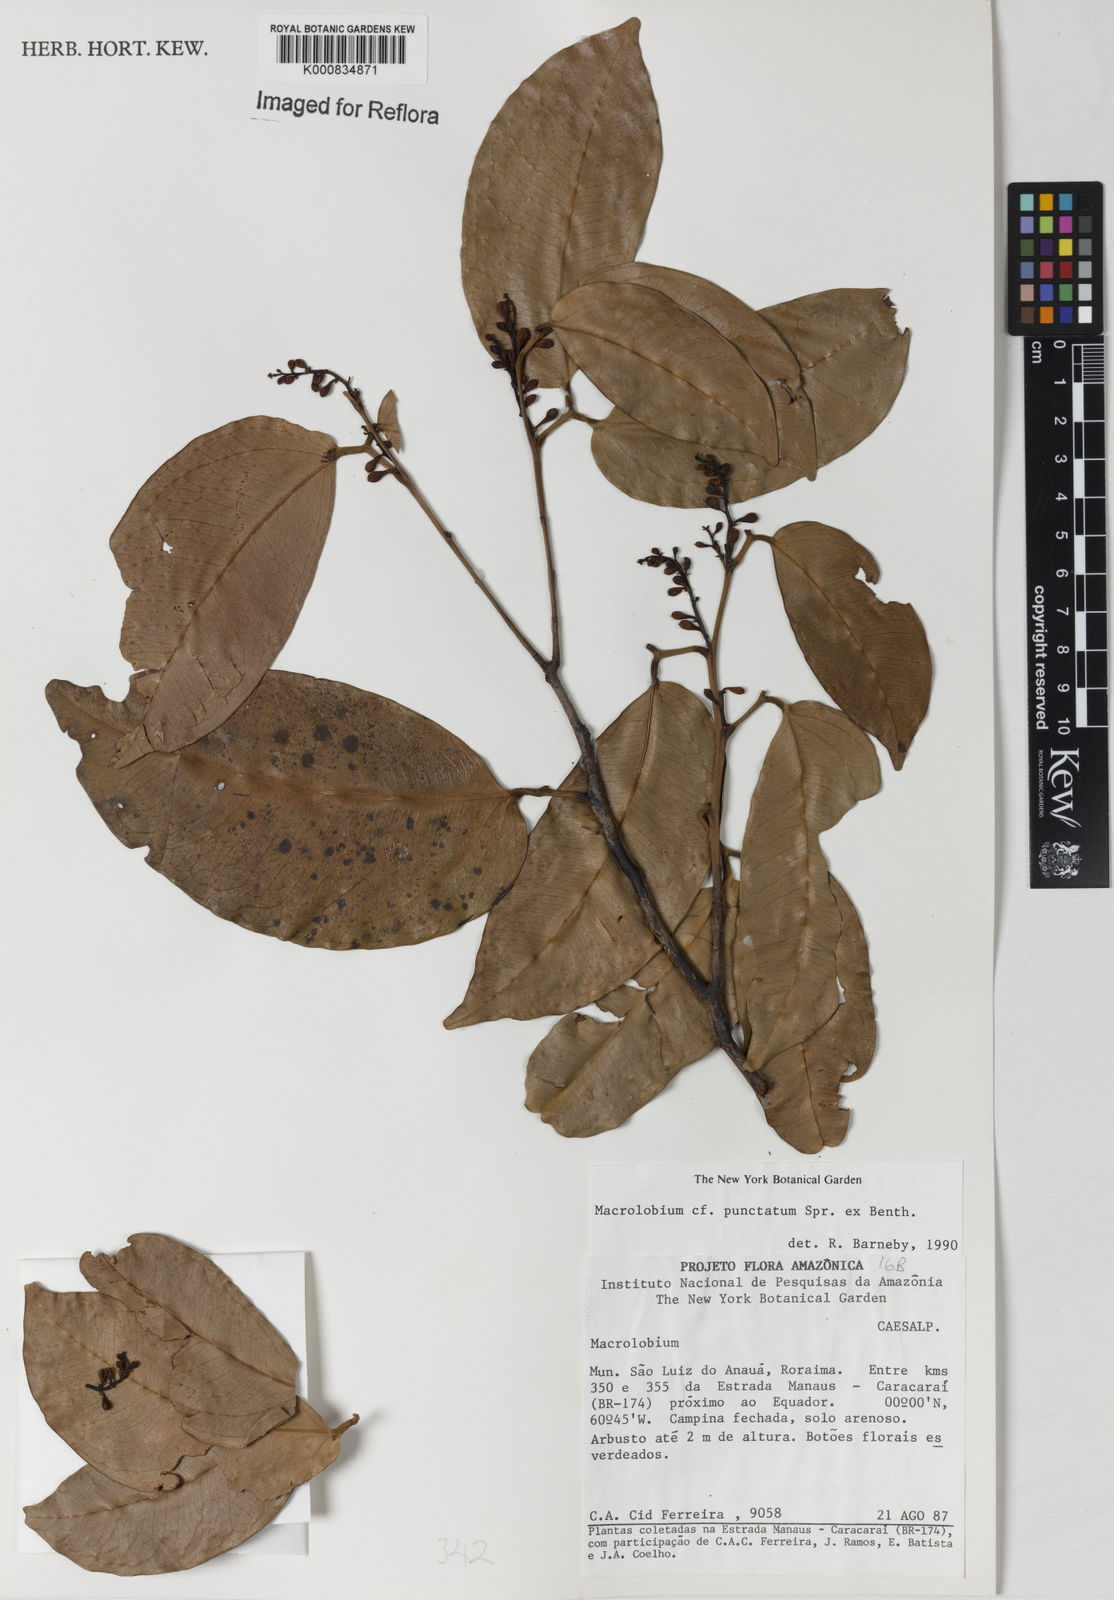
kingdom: Plantae
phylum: Tracheophyta
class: Magnoliopsida
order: Fabales
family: Fabaceae
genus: Macrolobium
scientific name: Macrolobium punctatum
